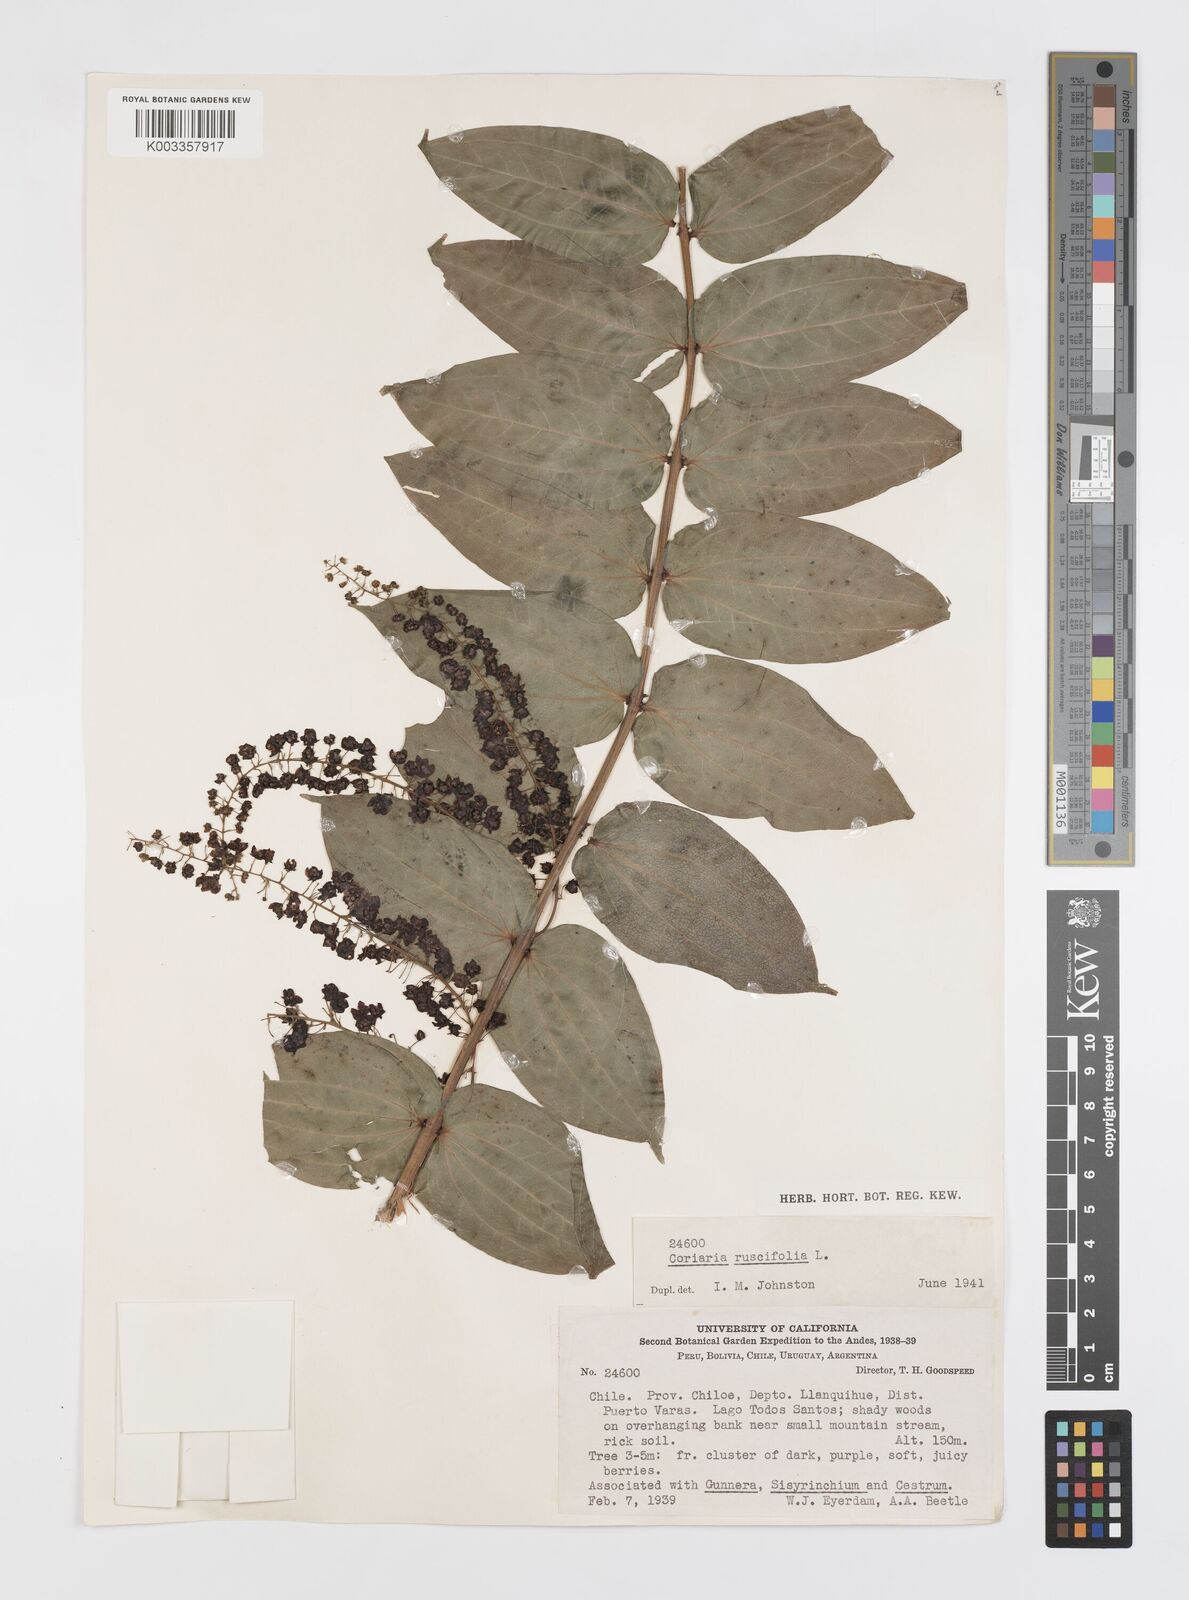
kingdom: Plantae
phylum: Tracheophyta
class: Magnoliopsida
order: Cucurbitales
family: Coriariaceae
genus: Coriaria
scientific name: Coriaria ruscifolia
